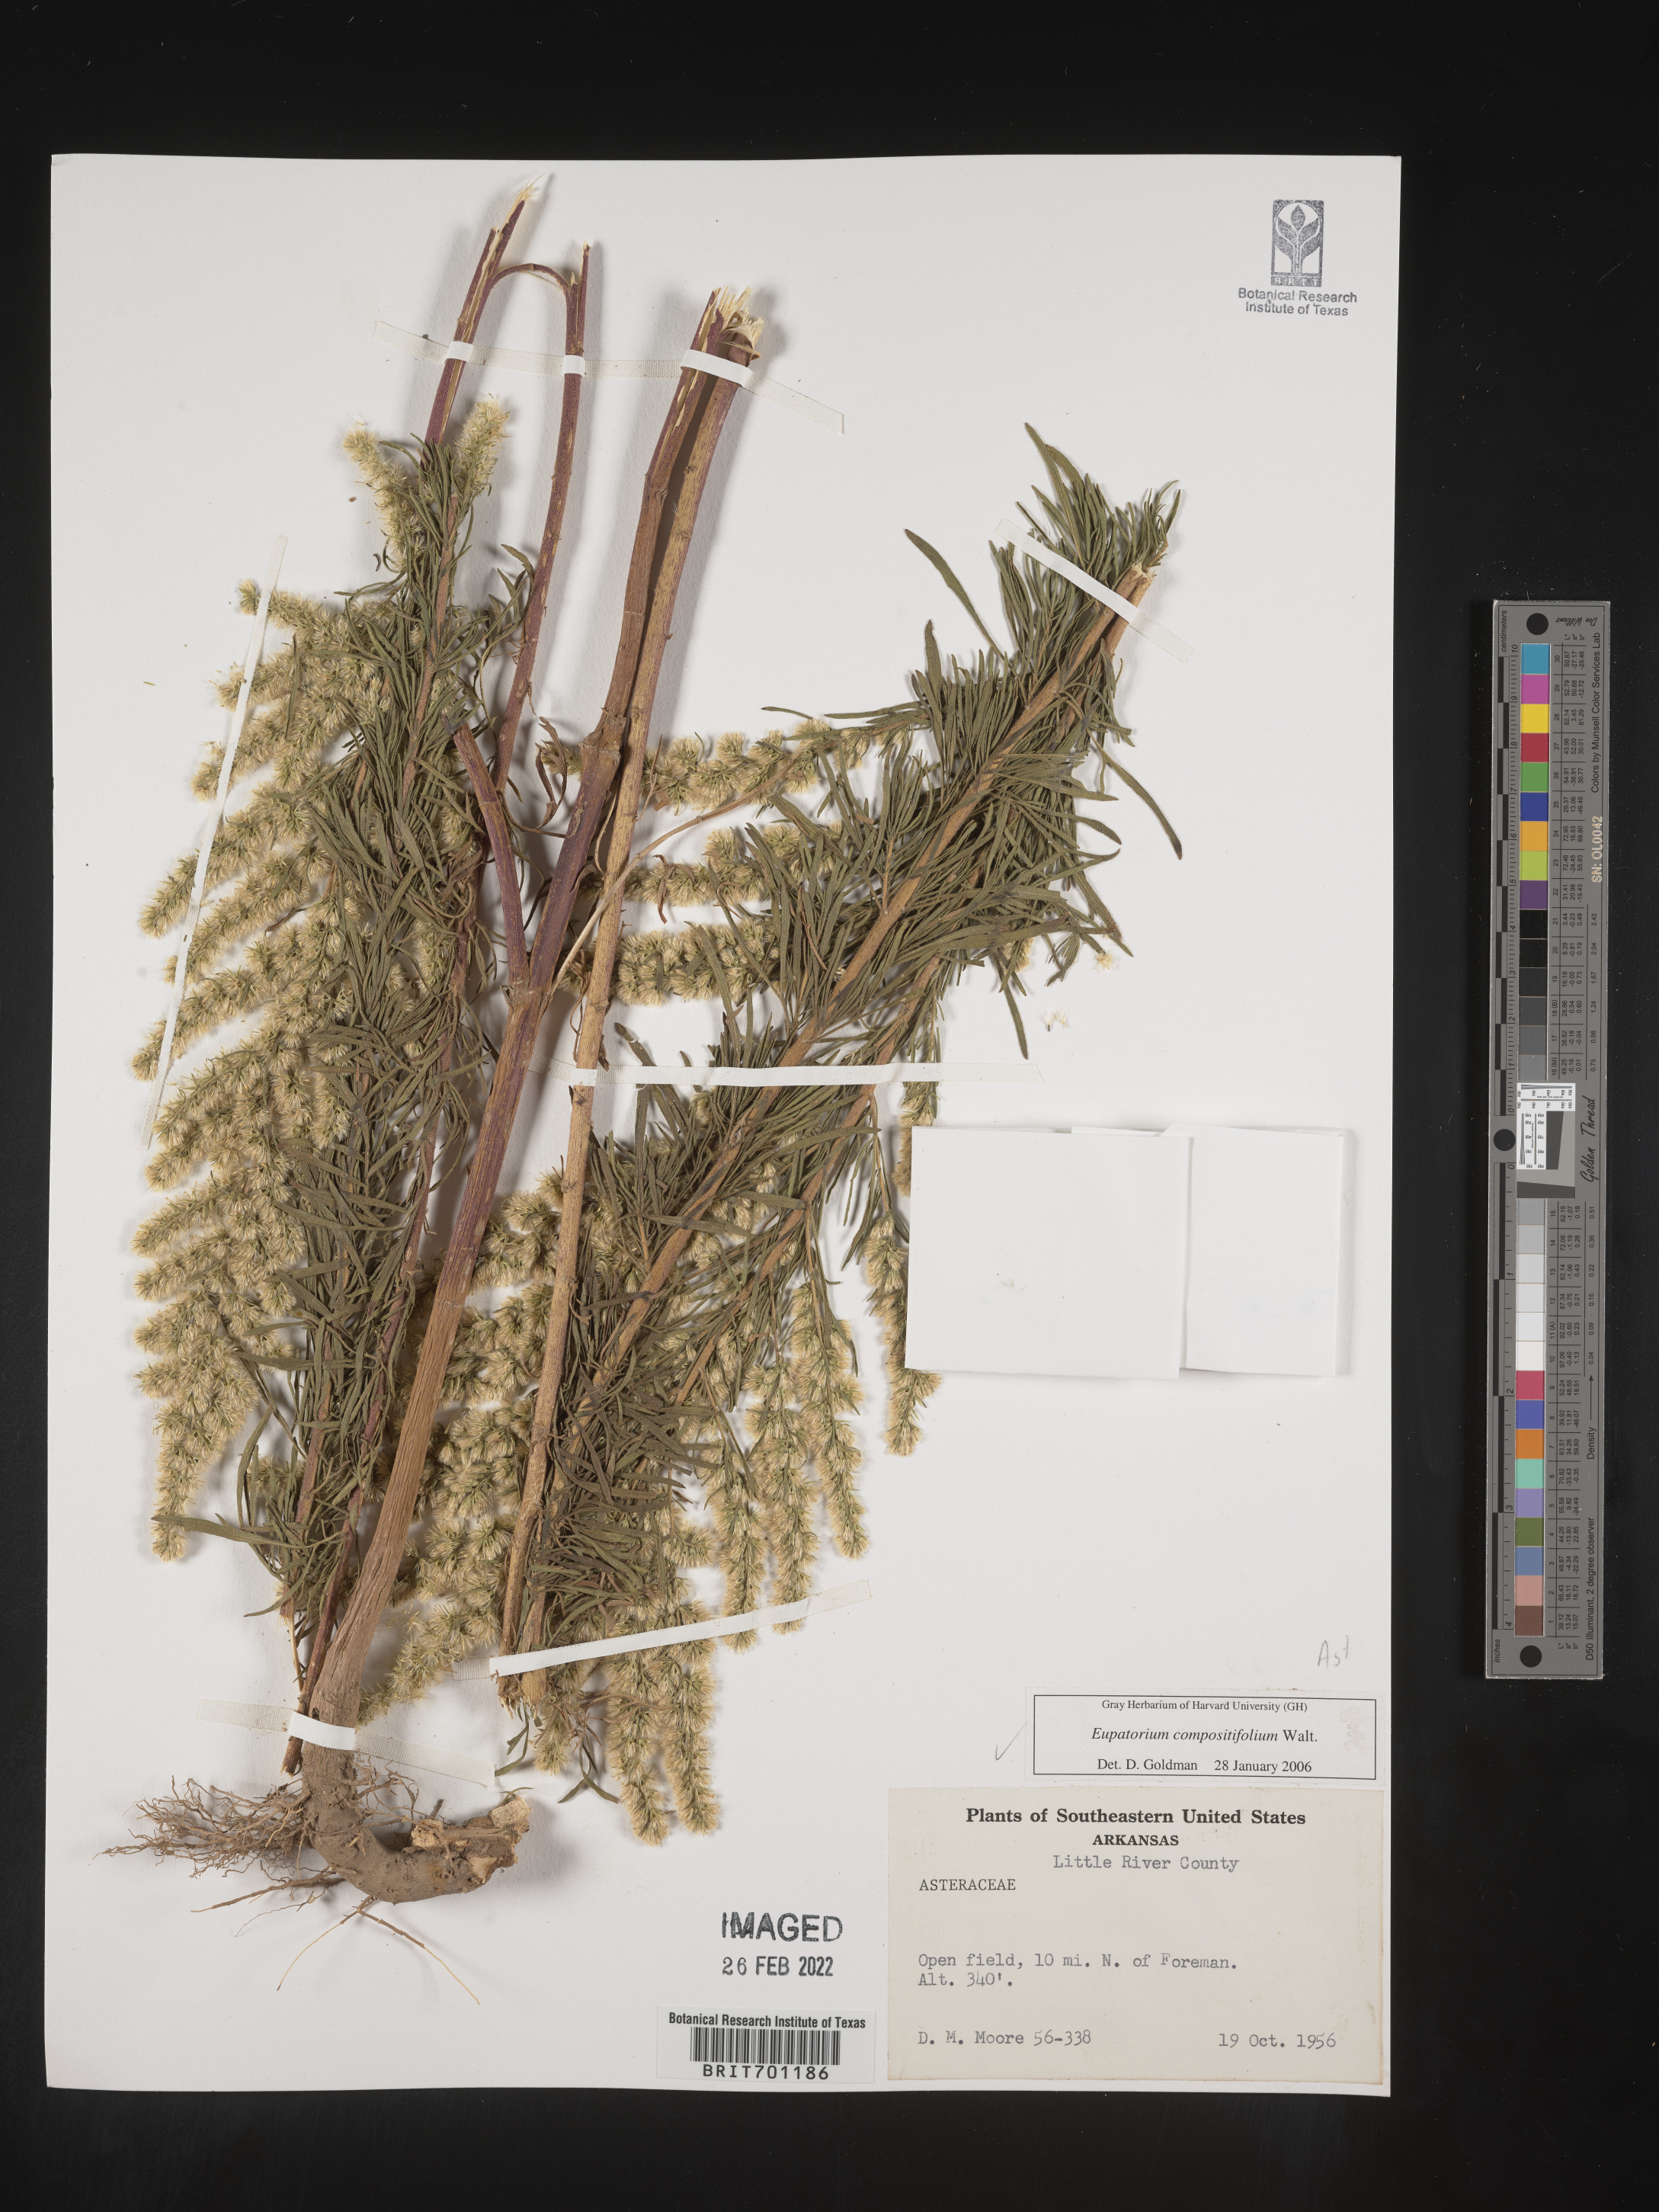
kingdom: Plantae
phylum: Tracheophyta
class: Magnoliopsida
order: Asterales
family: Asteraceae
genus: Eupatorium
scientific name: Eupatorium compositifolium
